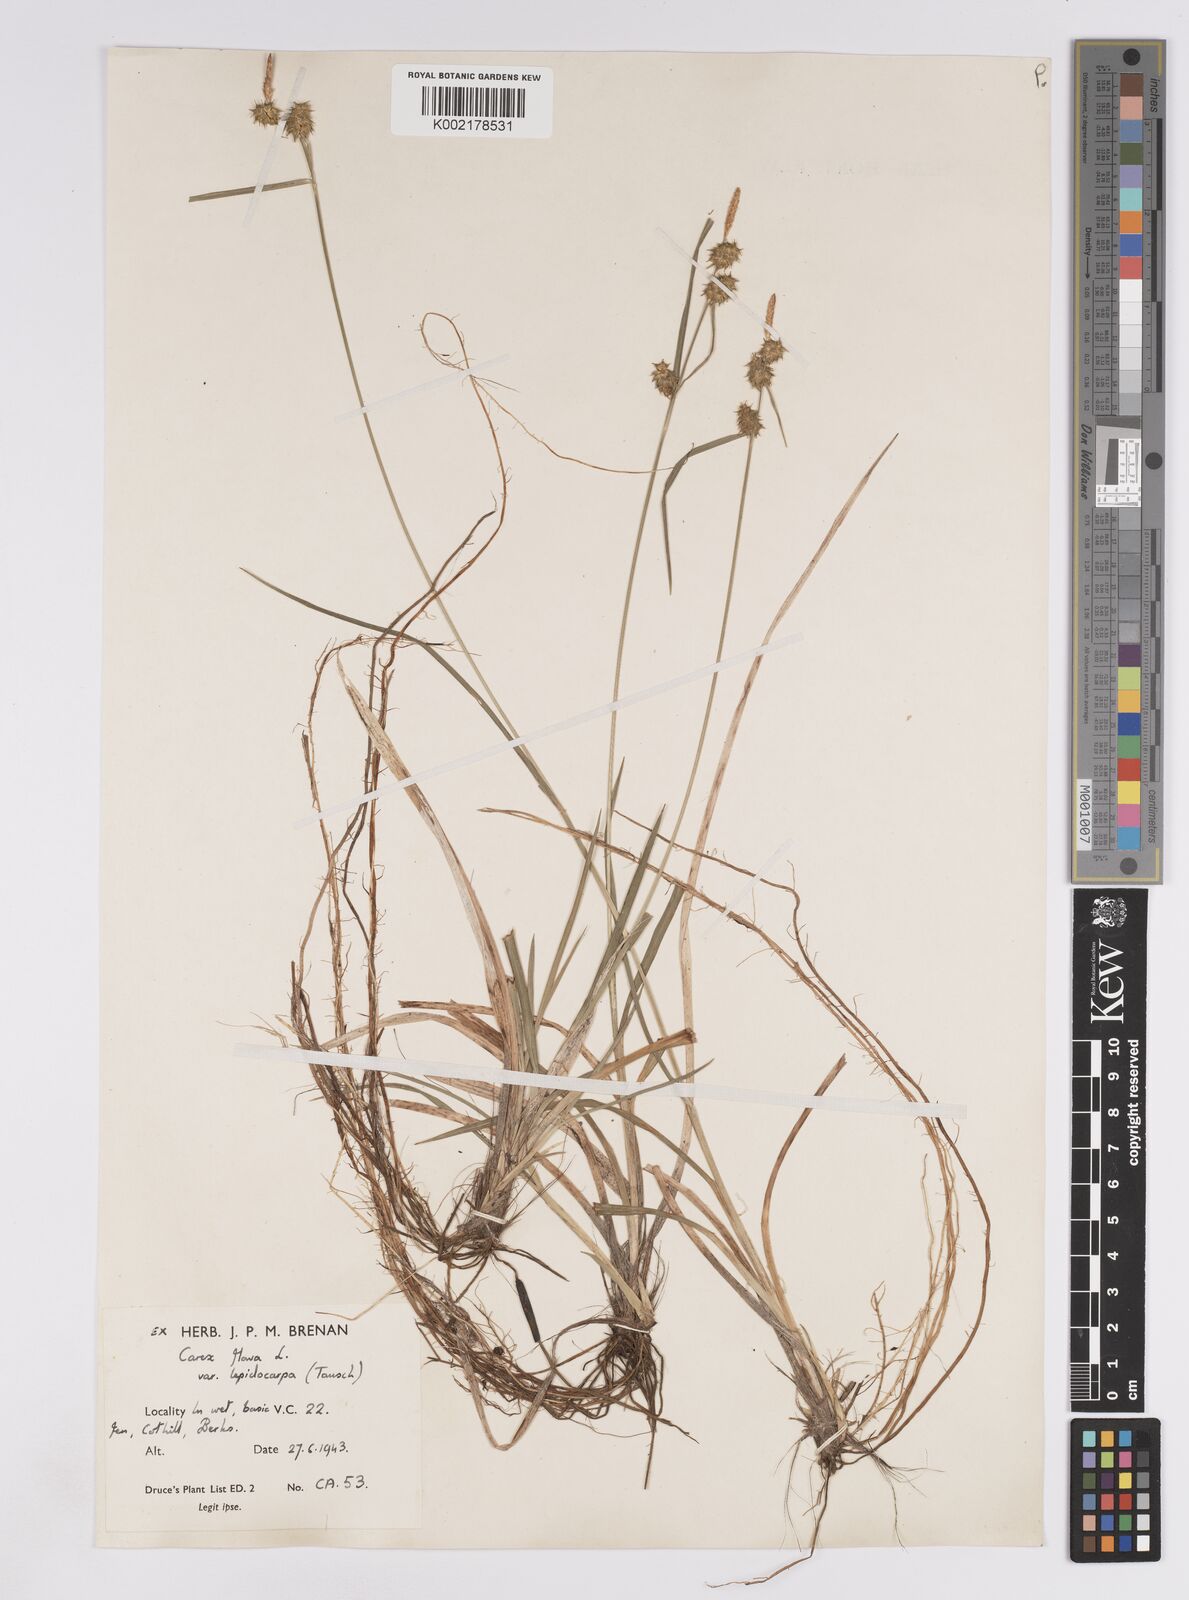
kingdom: Plantae
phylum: Tracheophyta
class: Liliopsida
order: Poales
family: Cyperaceae
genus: Carex
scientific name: Carex lepidocarpa
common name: Long-stalked yellow-sedge
